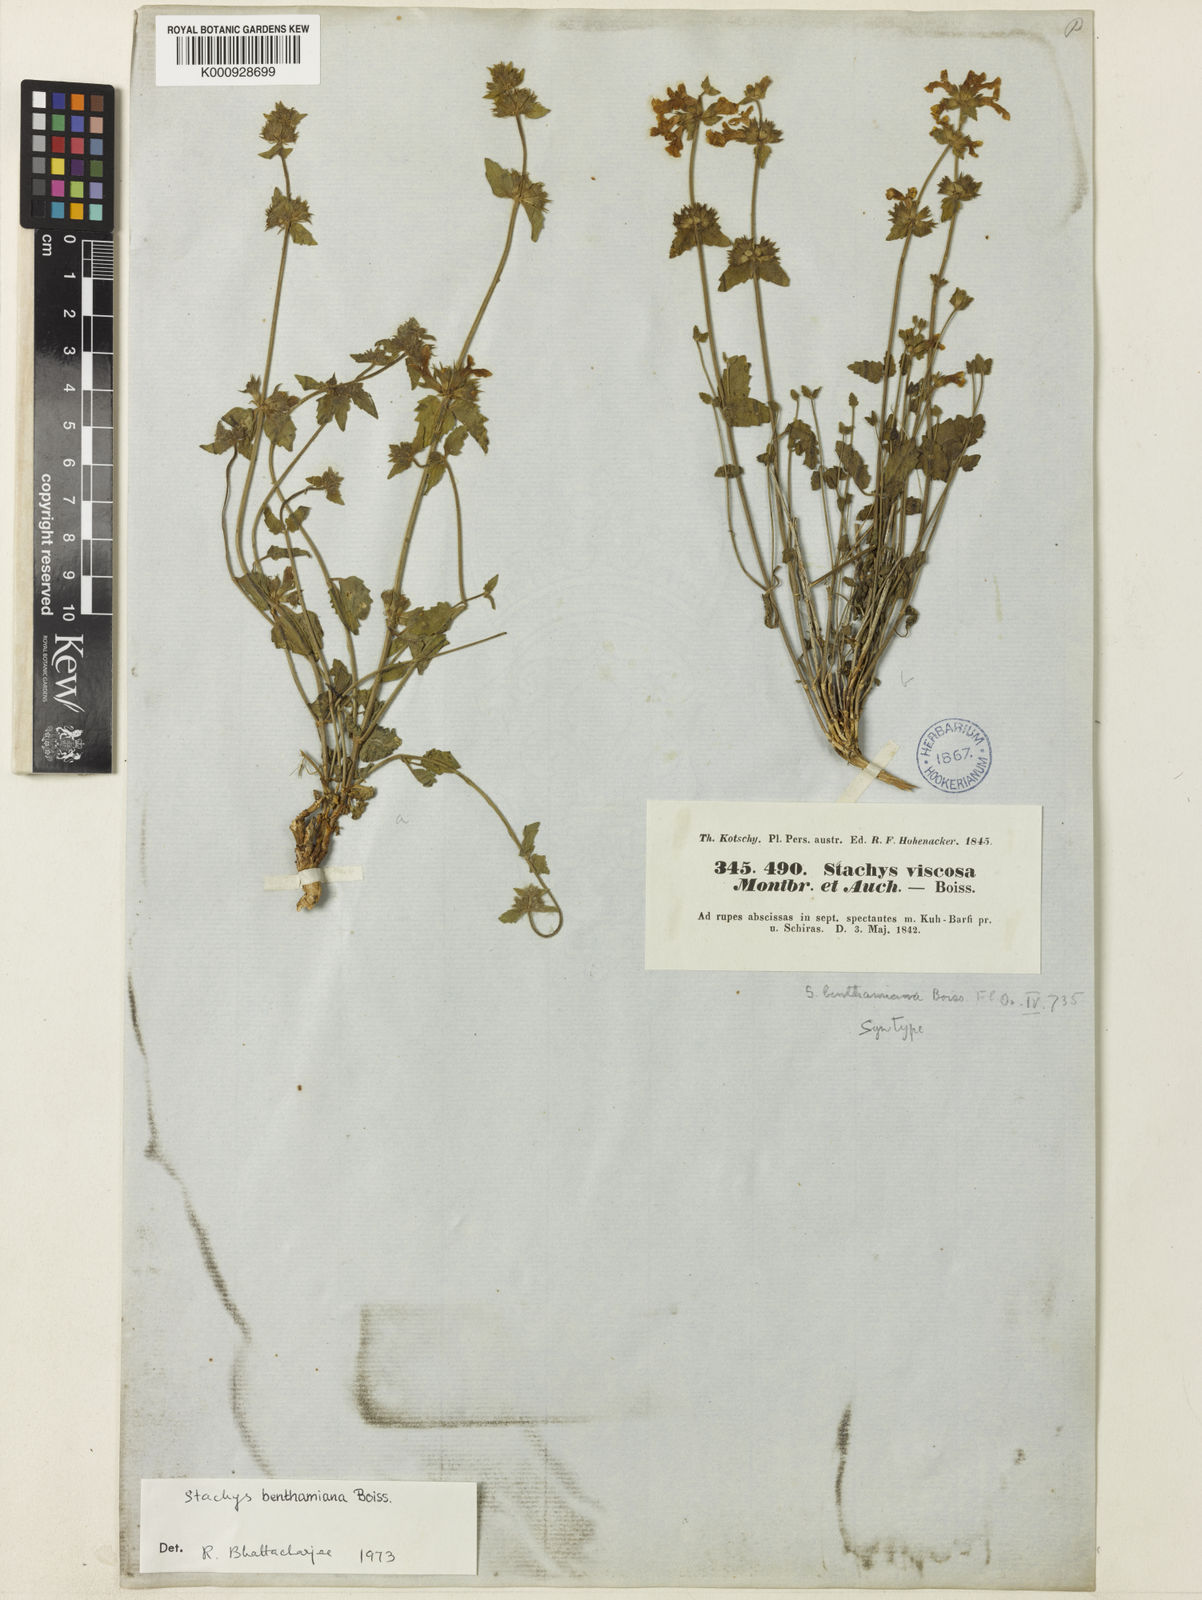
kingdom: Plantae
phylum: Tracheophyta
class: Magnoliopsida
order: Lamiales
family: Lamiaceae
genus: Stachys
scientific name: Stachys benthamiana
